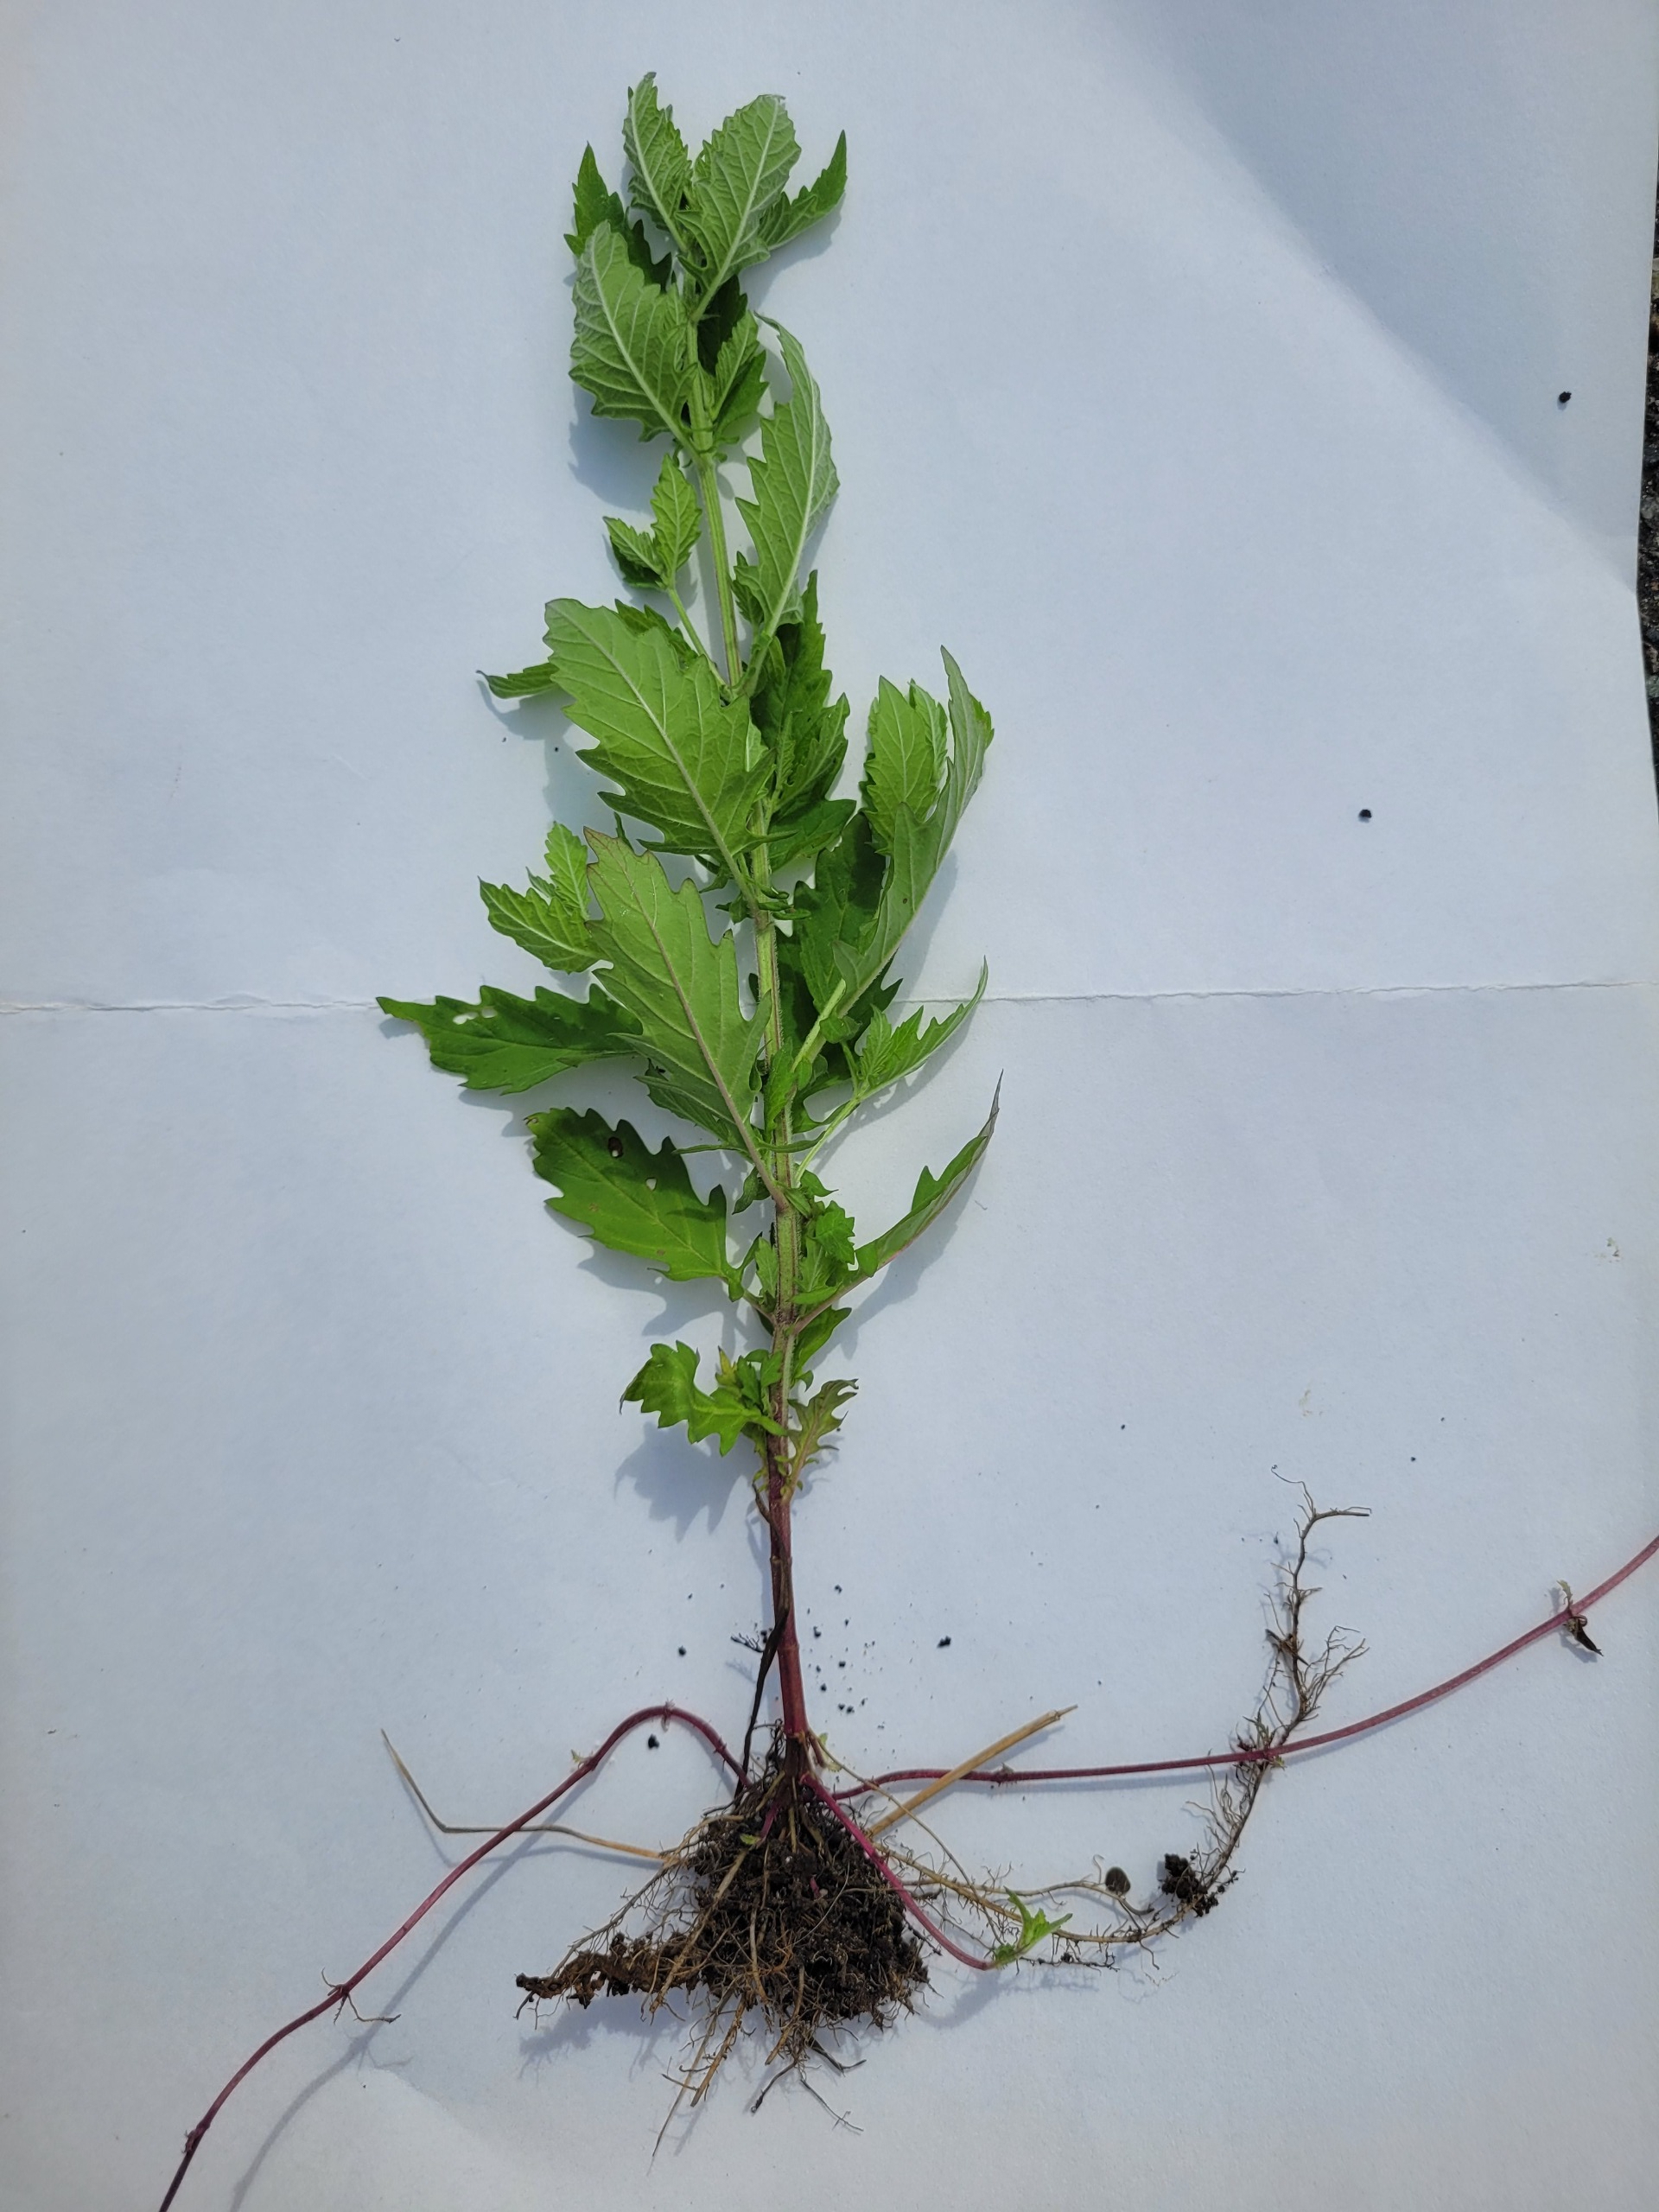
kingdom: Plantae
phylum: Tracheophyta
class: Magnoliopsida
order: Lamiales
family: Lamiaceae
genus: Lycopus
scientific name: Lycopus europaeus
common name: Sværtevæld
